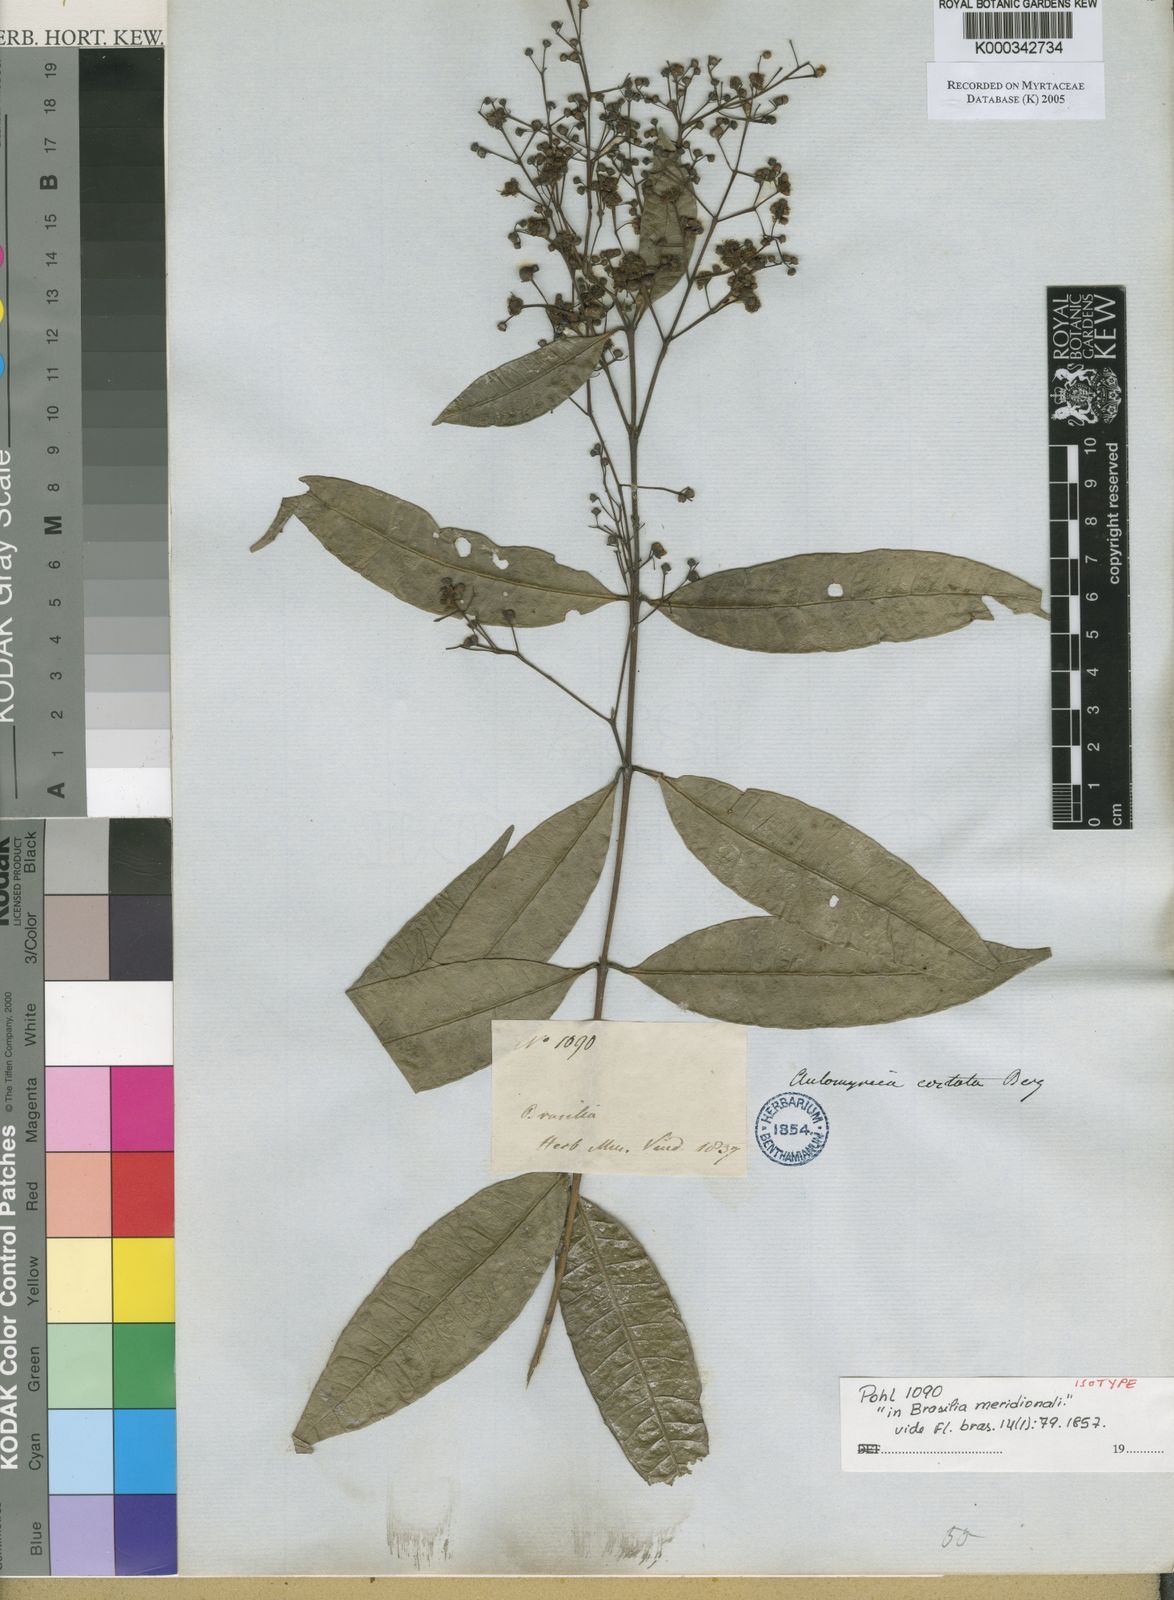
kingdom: Plantae
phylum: Tracheophyta
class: Magnoliopsida
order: Myrtales
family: Myrtaceae
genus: Myrcia
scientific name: Myrcia splendens
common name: Surinam cherry
